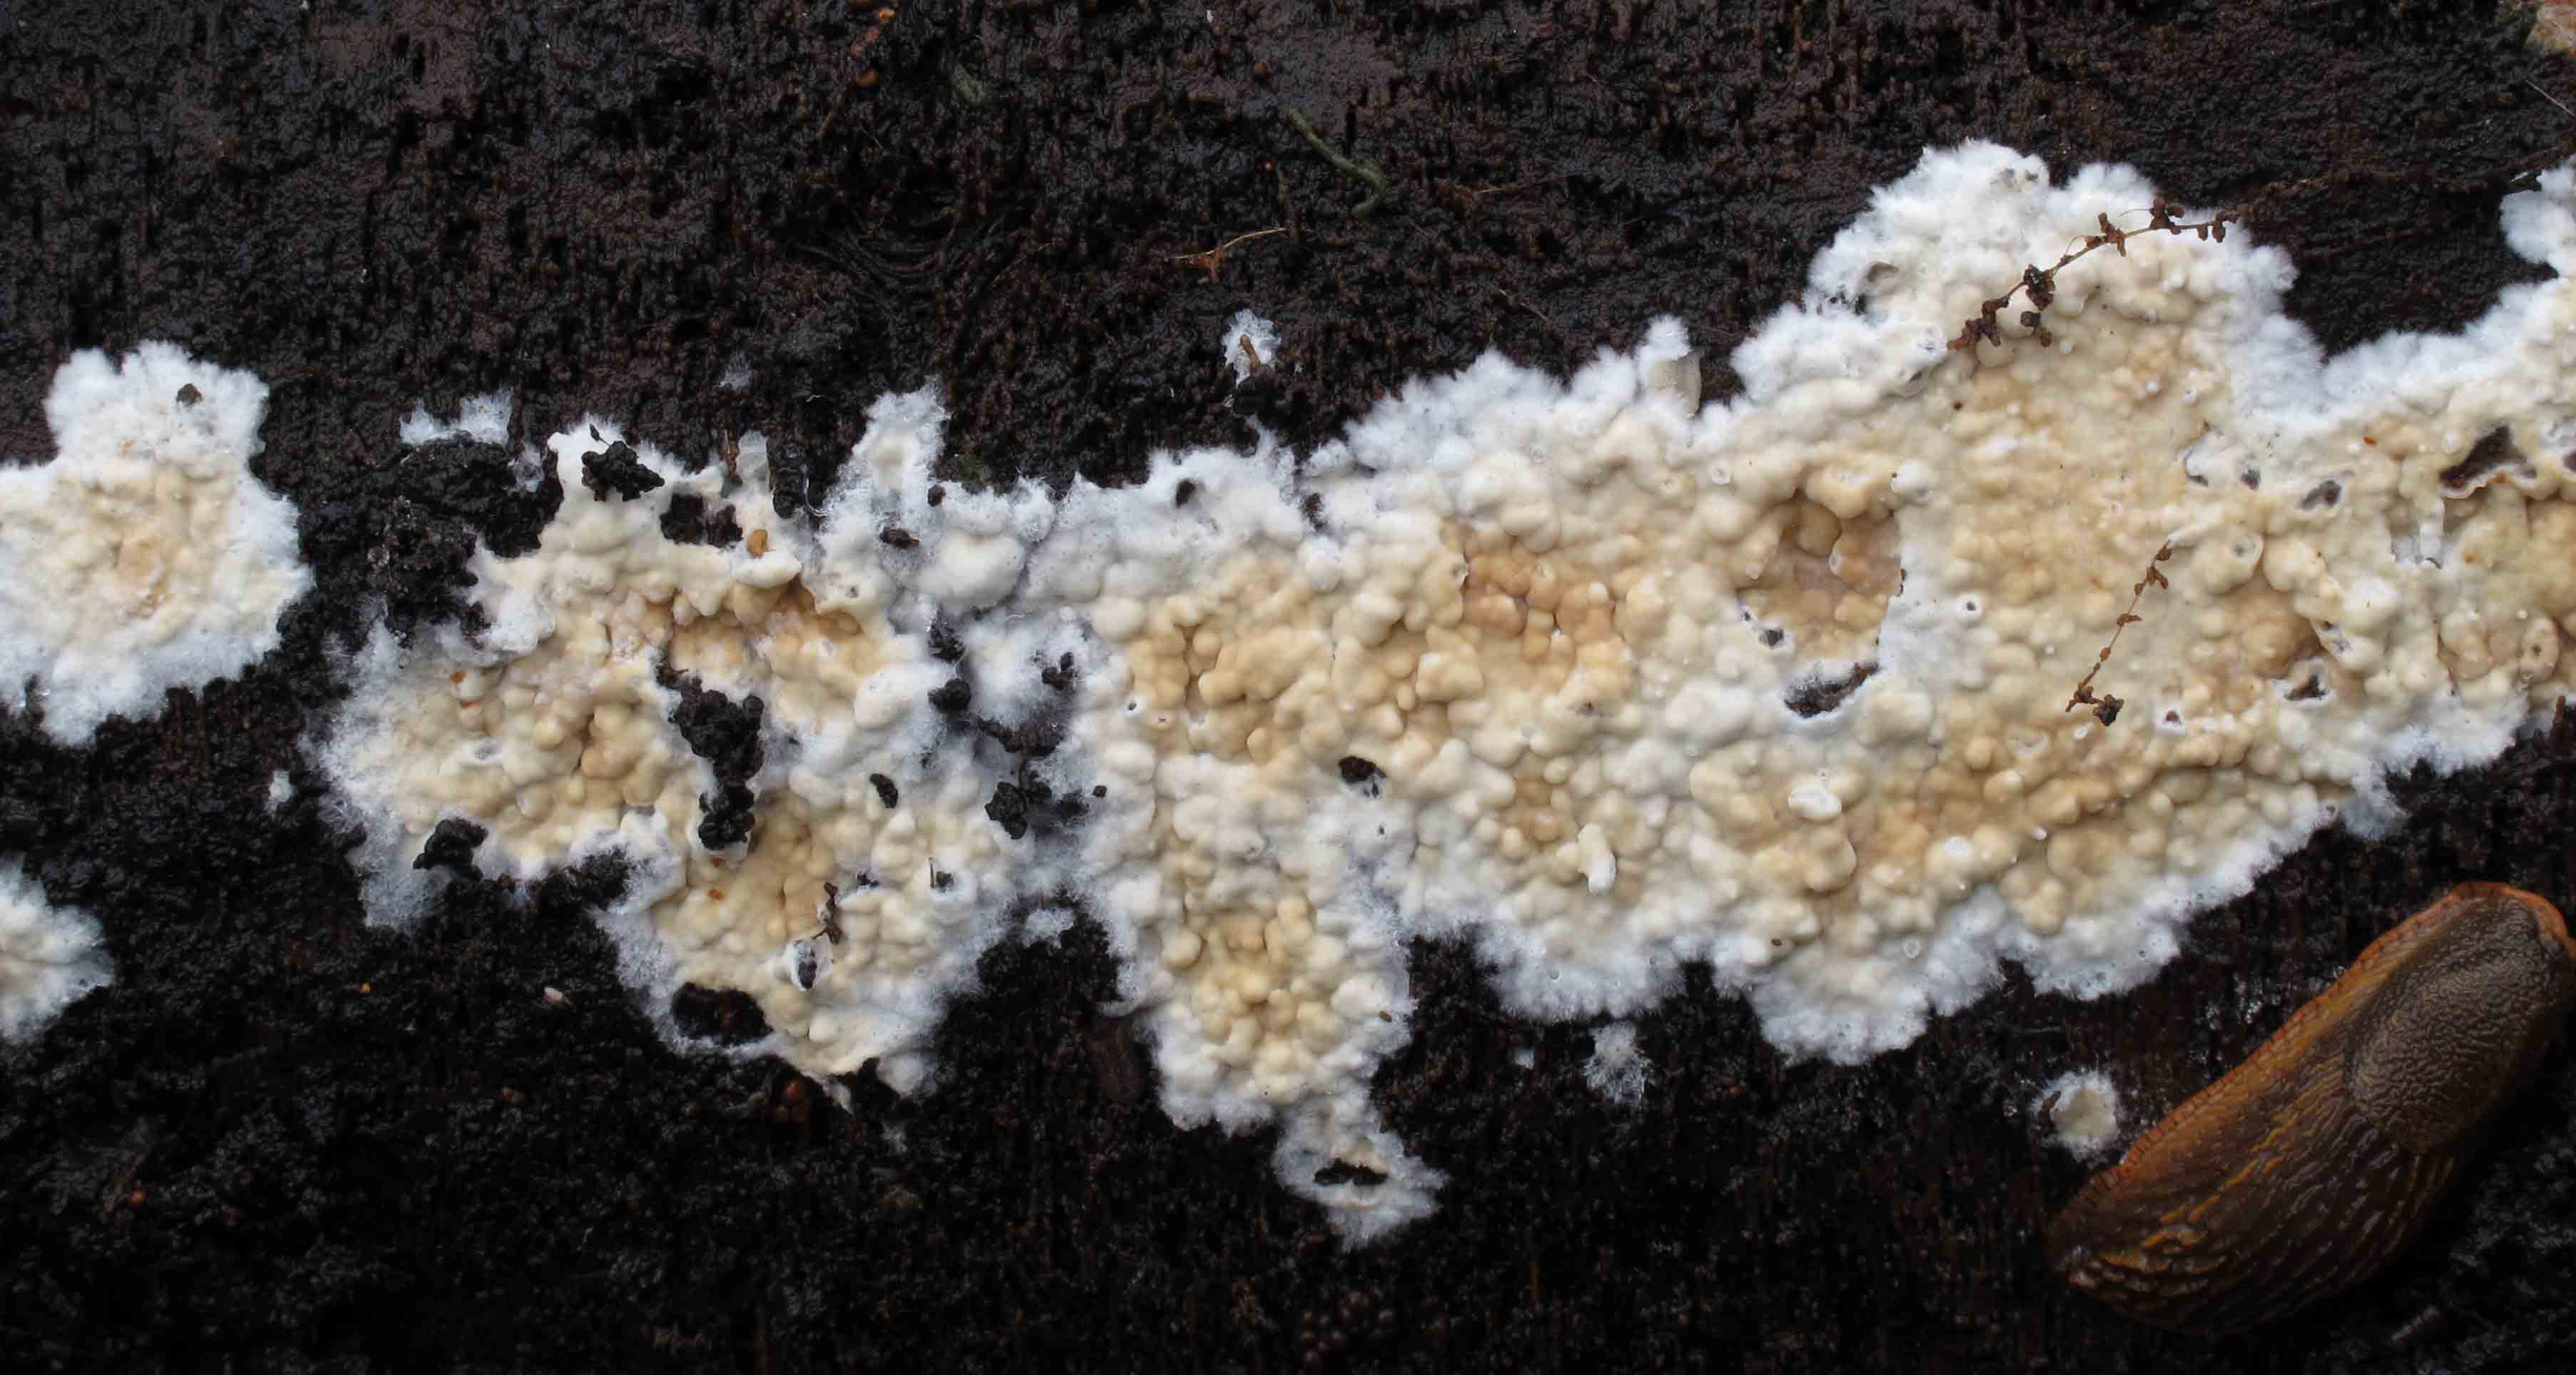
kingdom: Fungi
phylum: Basidiomycota
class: Agaricomycetes
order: Agaricales
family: Physalacriaceae
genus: Cylindrobasidium
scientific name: Cylindrobasidium evolvens
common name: sprækkehinde
